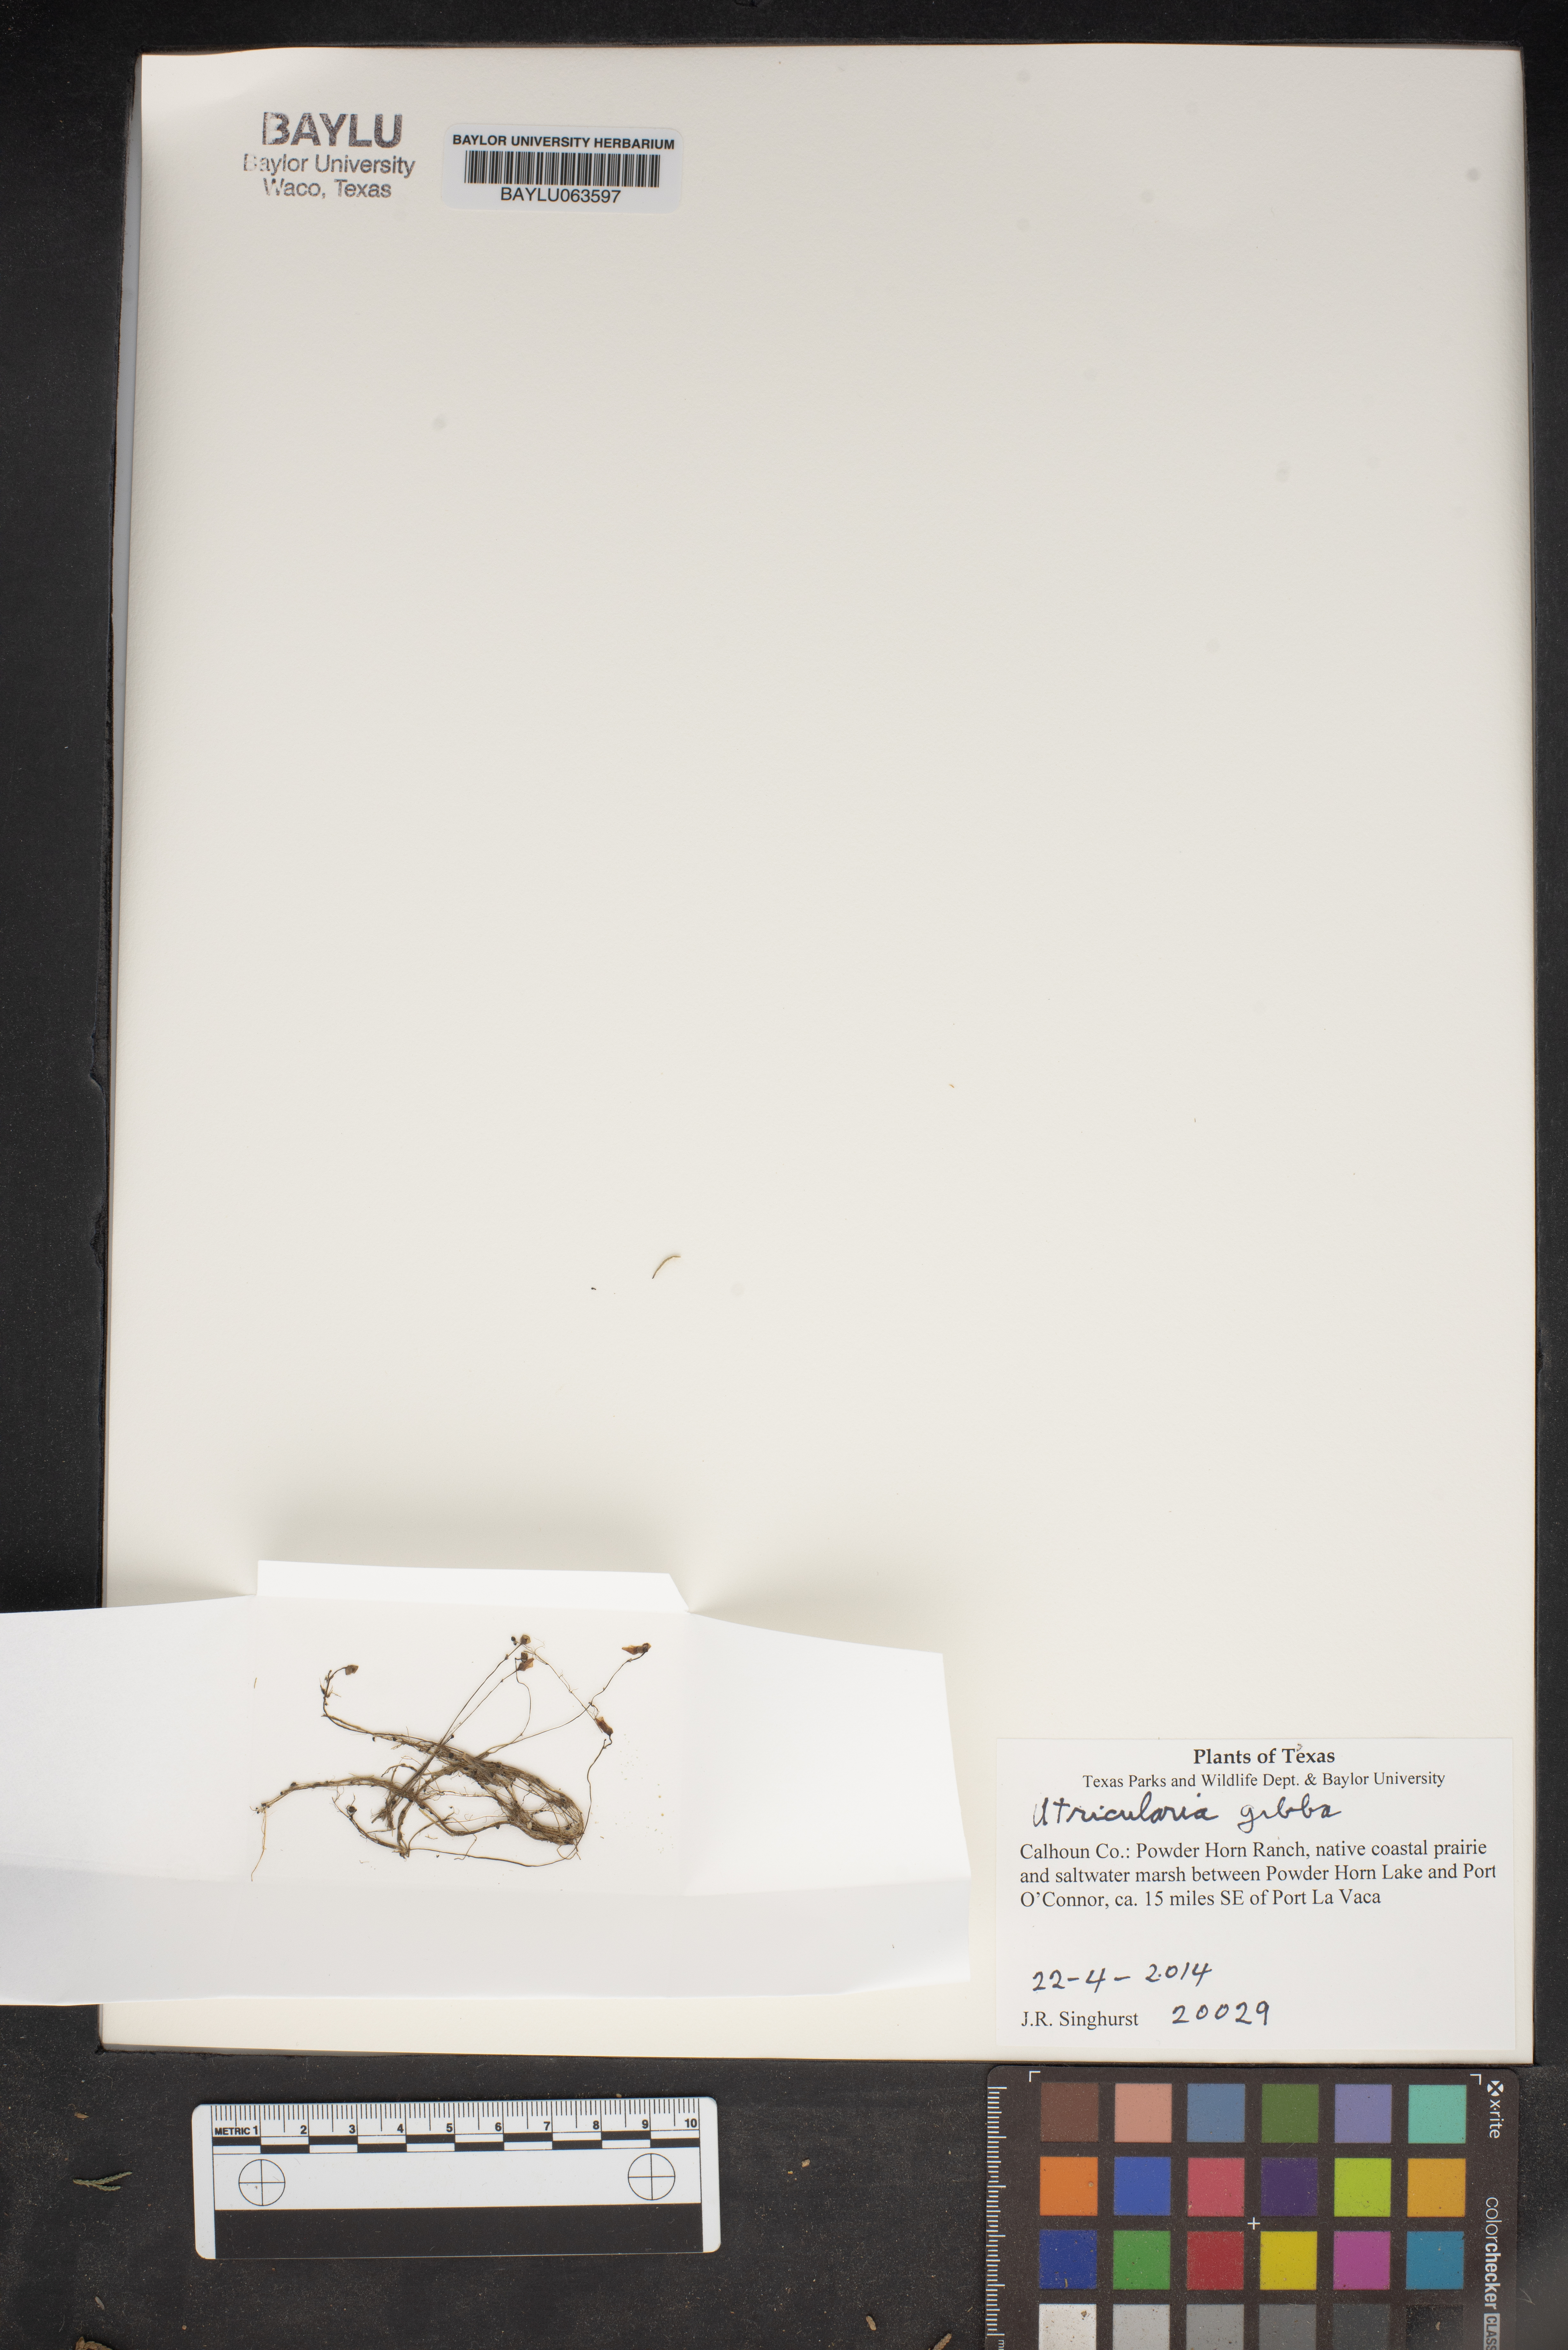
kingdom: Plantae
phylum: Tracheophyta
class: Magnoliopsida
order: Lamiales
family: Lentibulariaceae
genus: Utricularia
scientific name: Utricularia gibba
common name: Humped bladderwort
